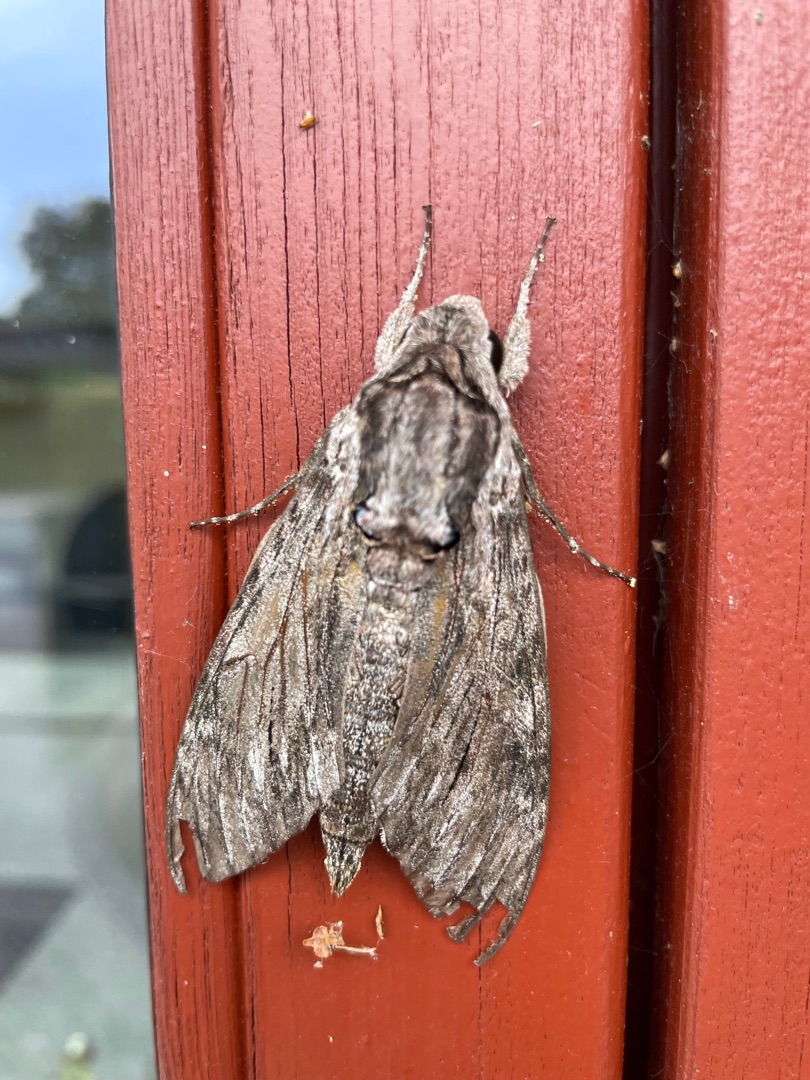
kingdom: Animalia
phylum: Arthropoda
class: Insecta
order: Lepidoptera
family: Sphingidae
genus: Agrius
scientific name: Agrius convolvuli
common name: Snerlesværmer
